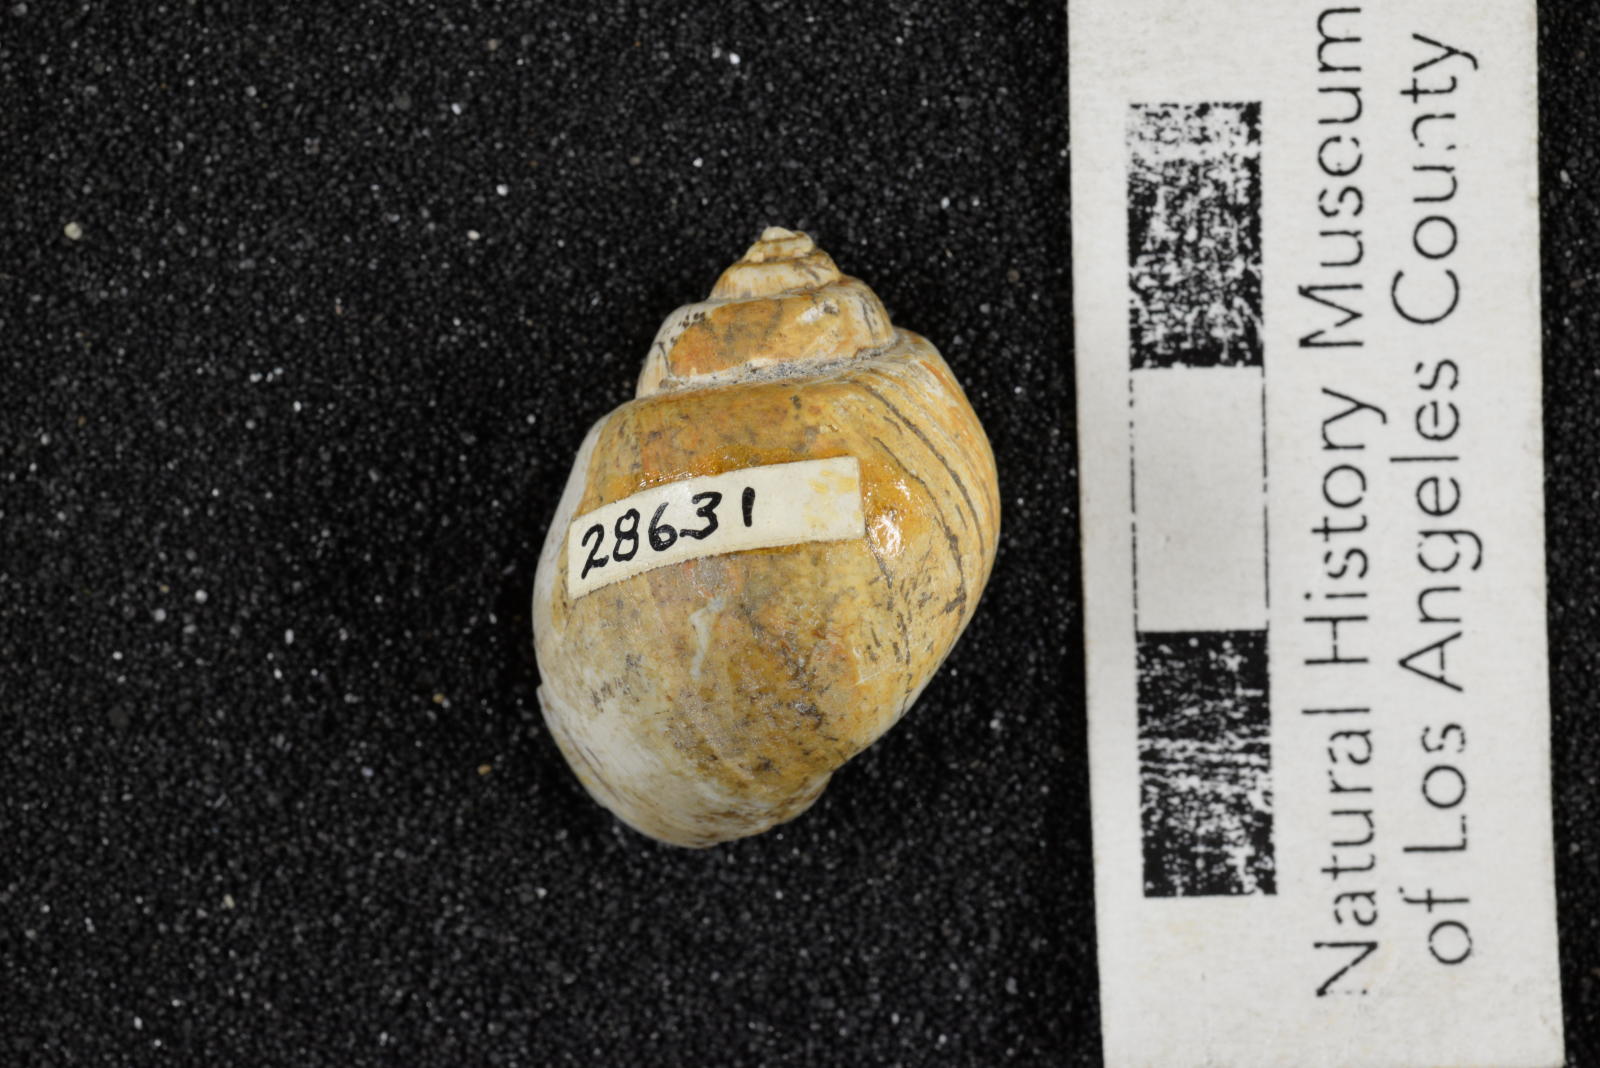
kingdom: Animalia
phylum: Mollusca
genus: Ampullina
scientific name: Ampullina
